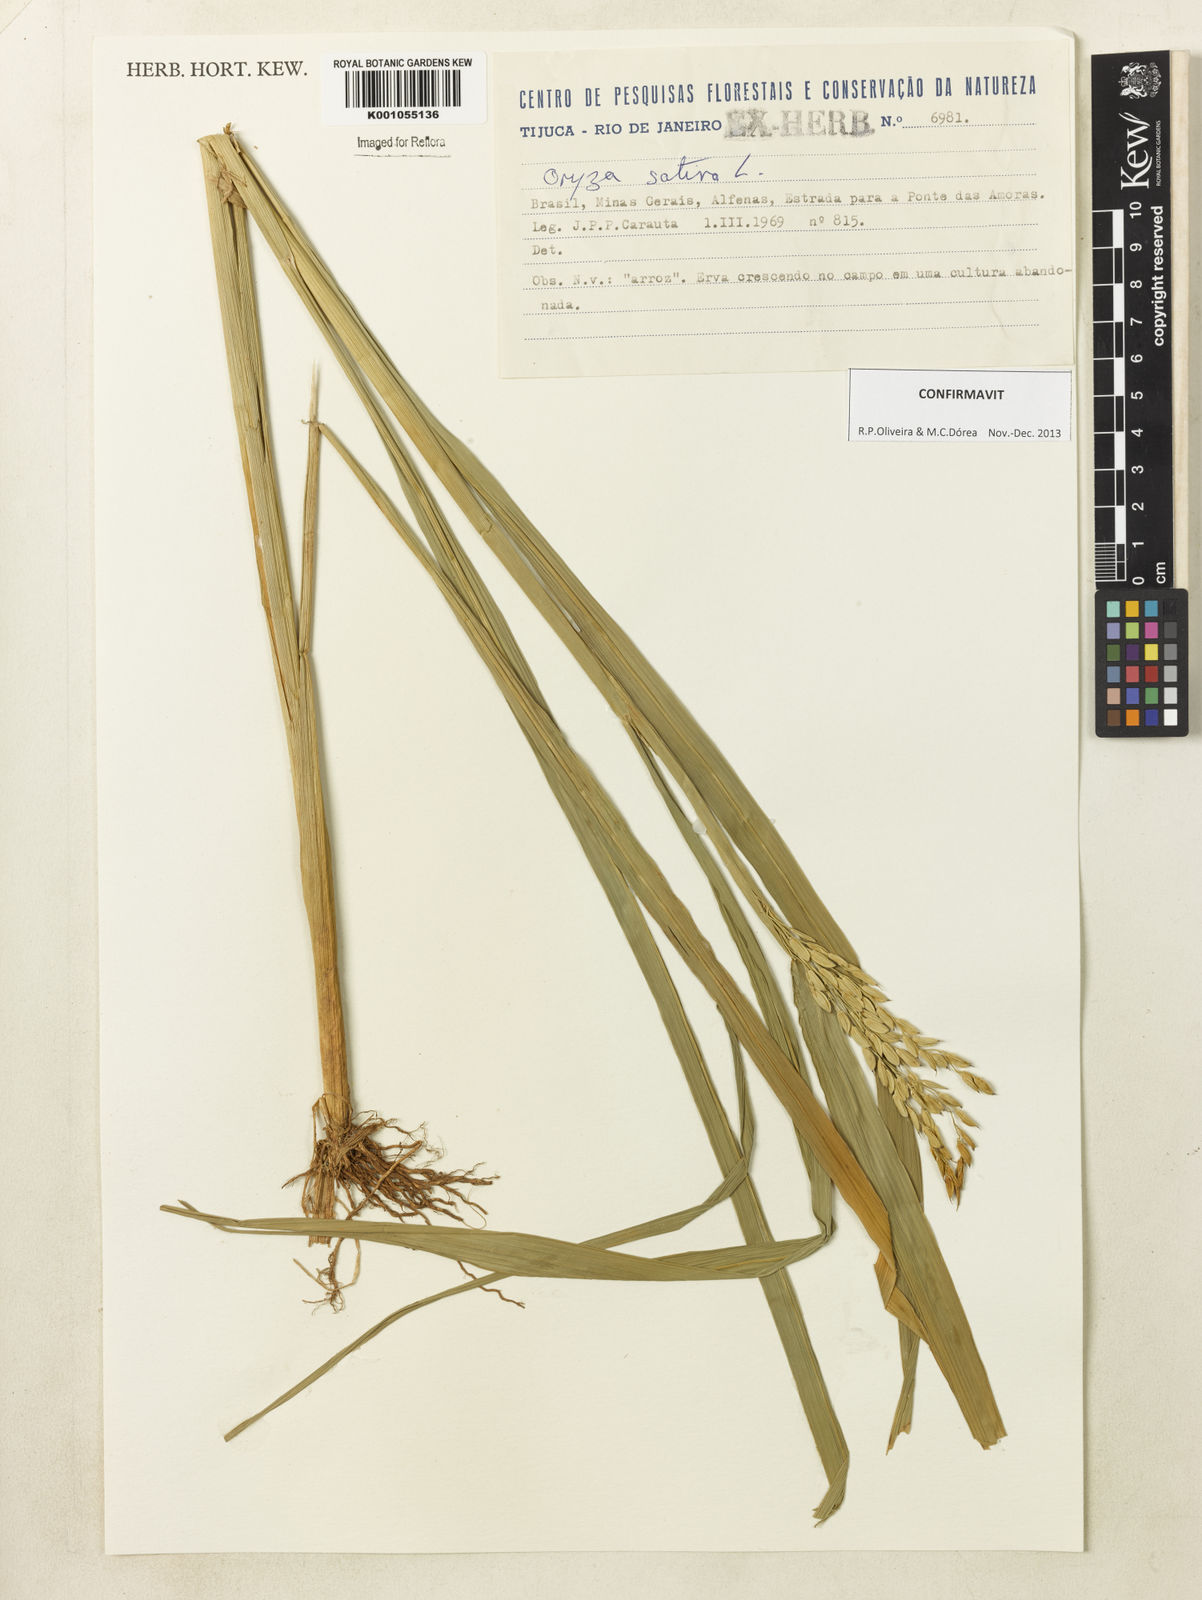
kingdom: Plantae
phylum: Tracheophyta
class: Liliopsida
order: Poales
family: Poaceae
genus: Oryza
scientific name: Oryza sativa
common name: Rice
